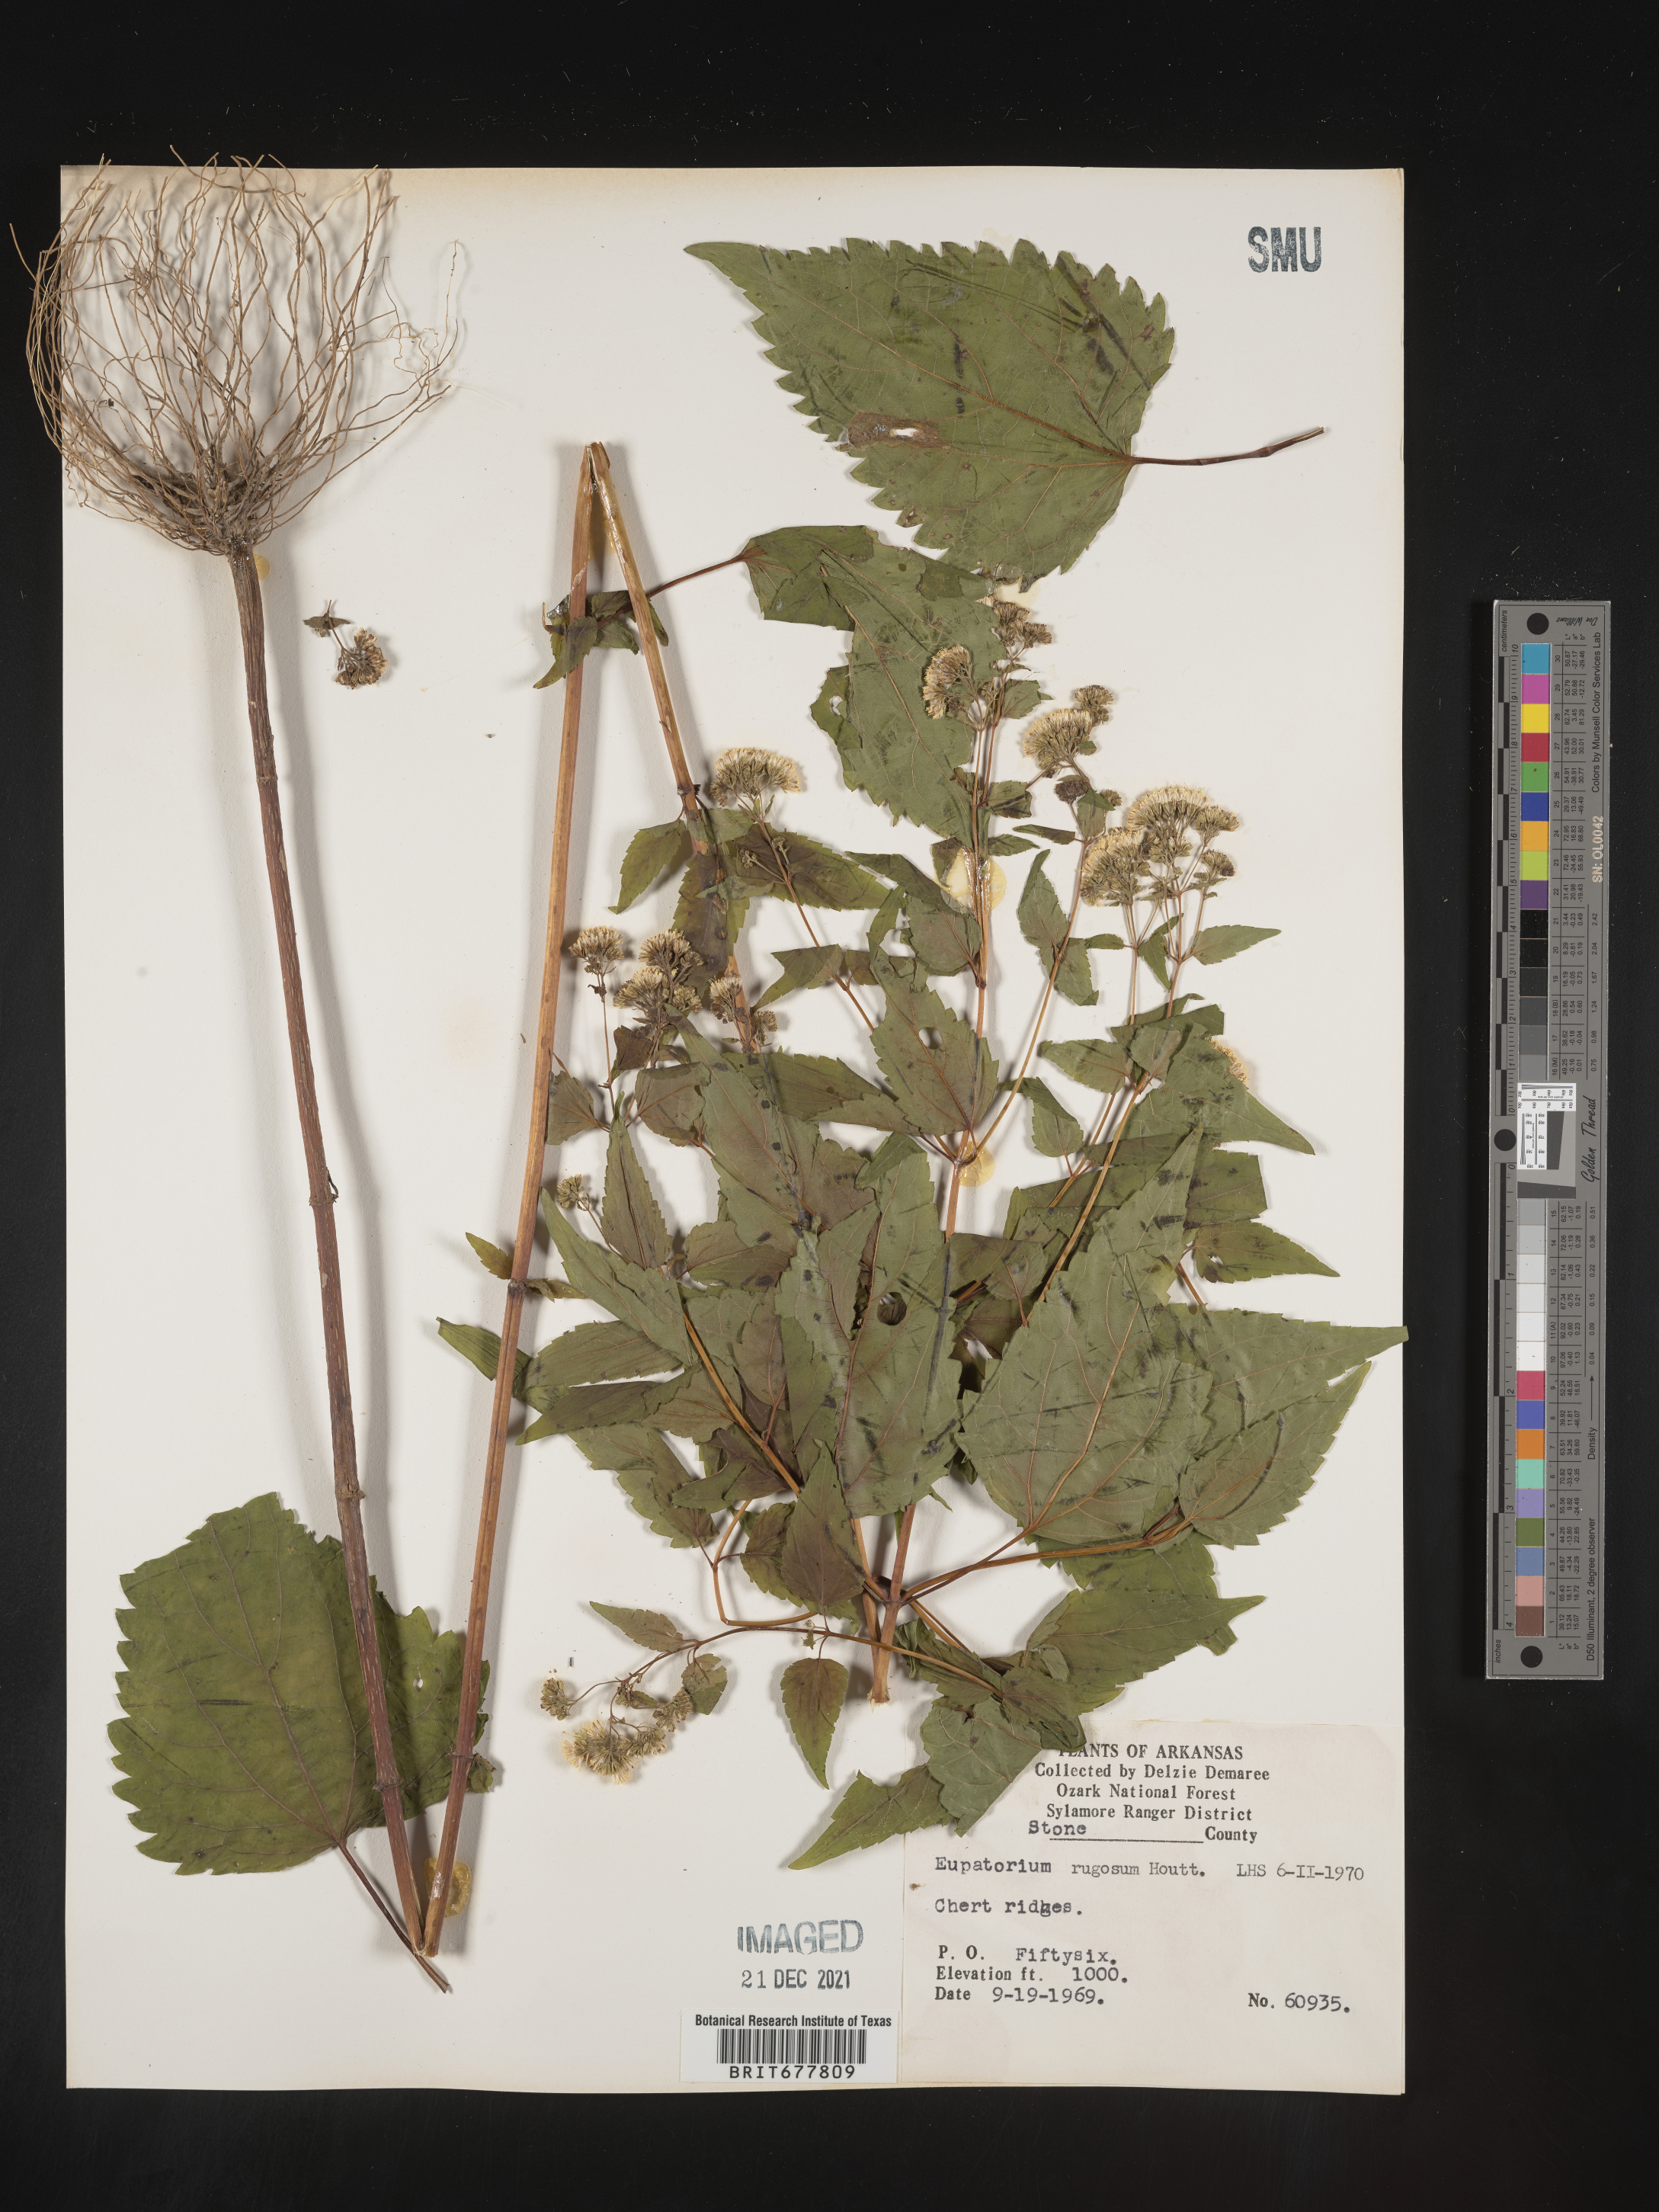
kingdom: Plantae
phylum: Tracheophyta
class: Magnoliopsida
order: Asterales
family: Asteraceae
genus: Ageratina
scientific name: Ageratina altissima
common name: White snakeroot
